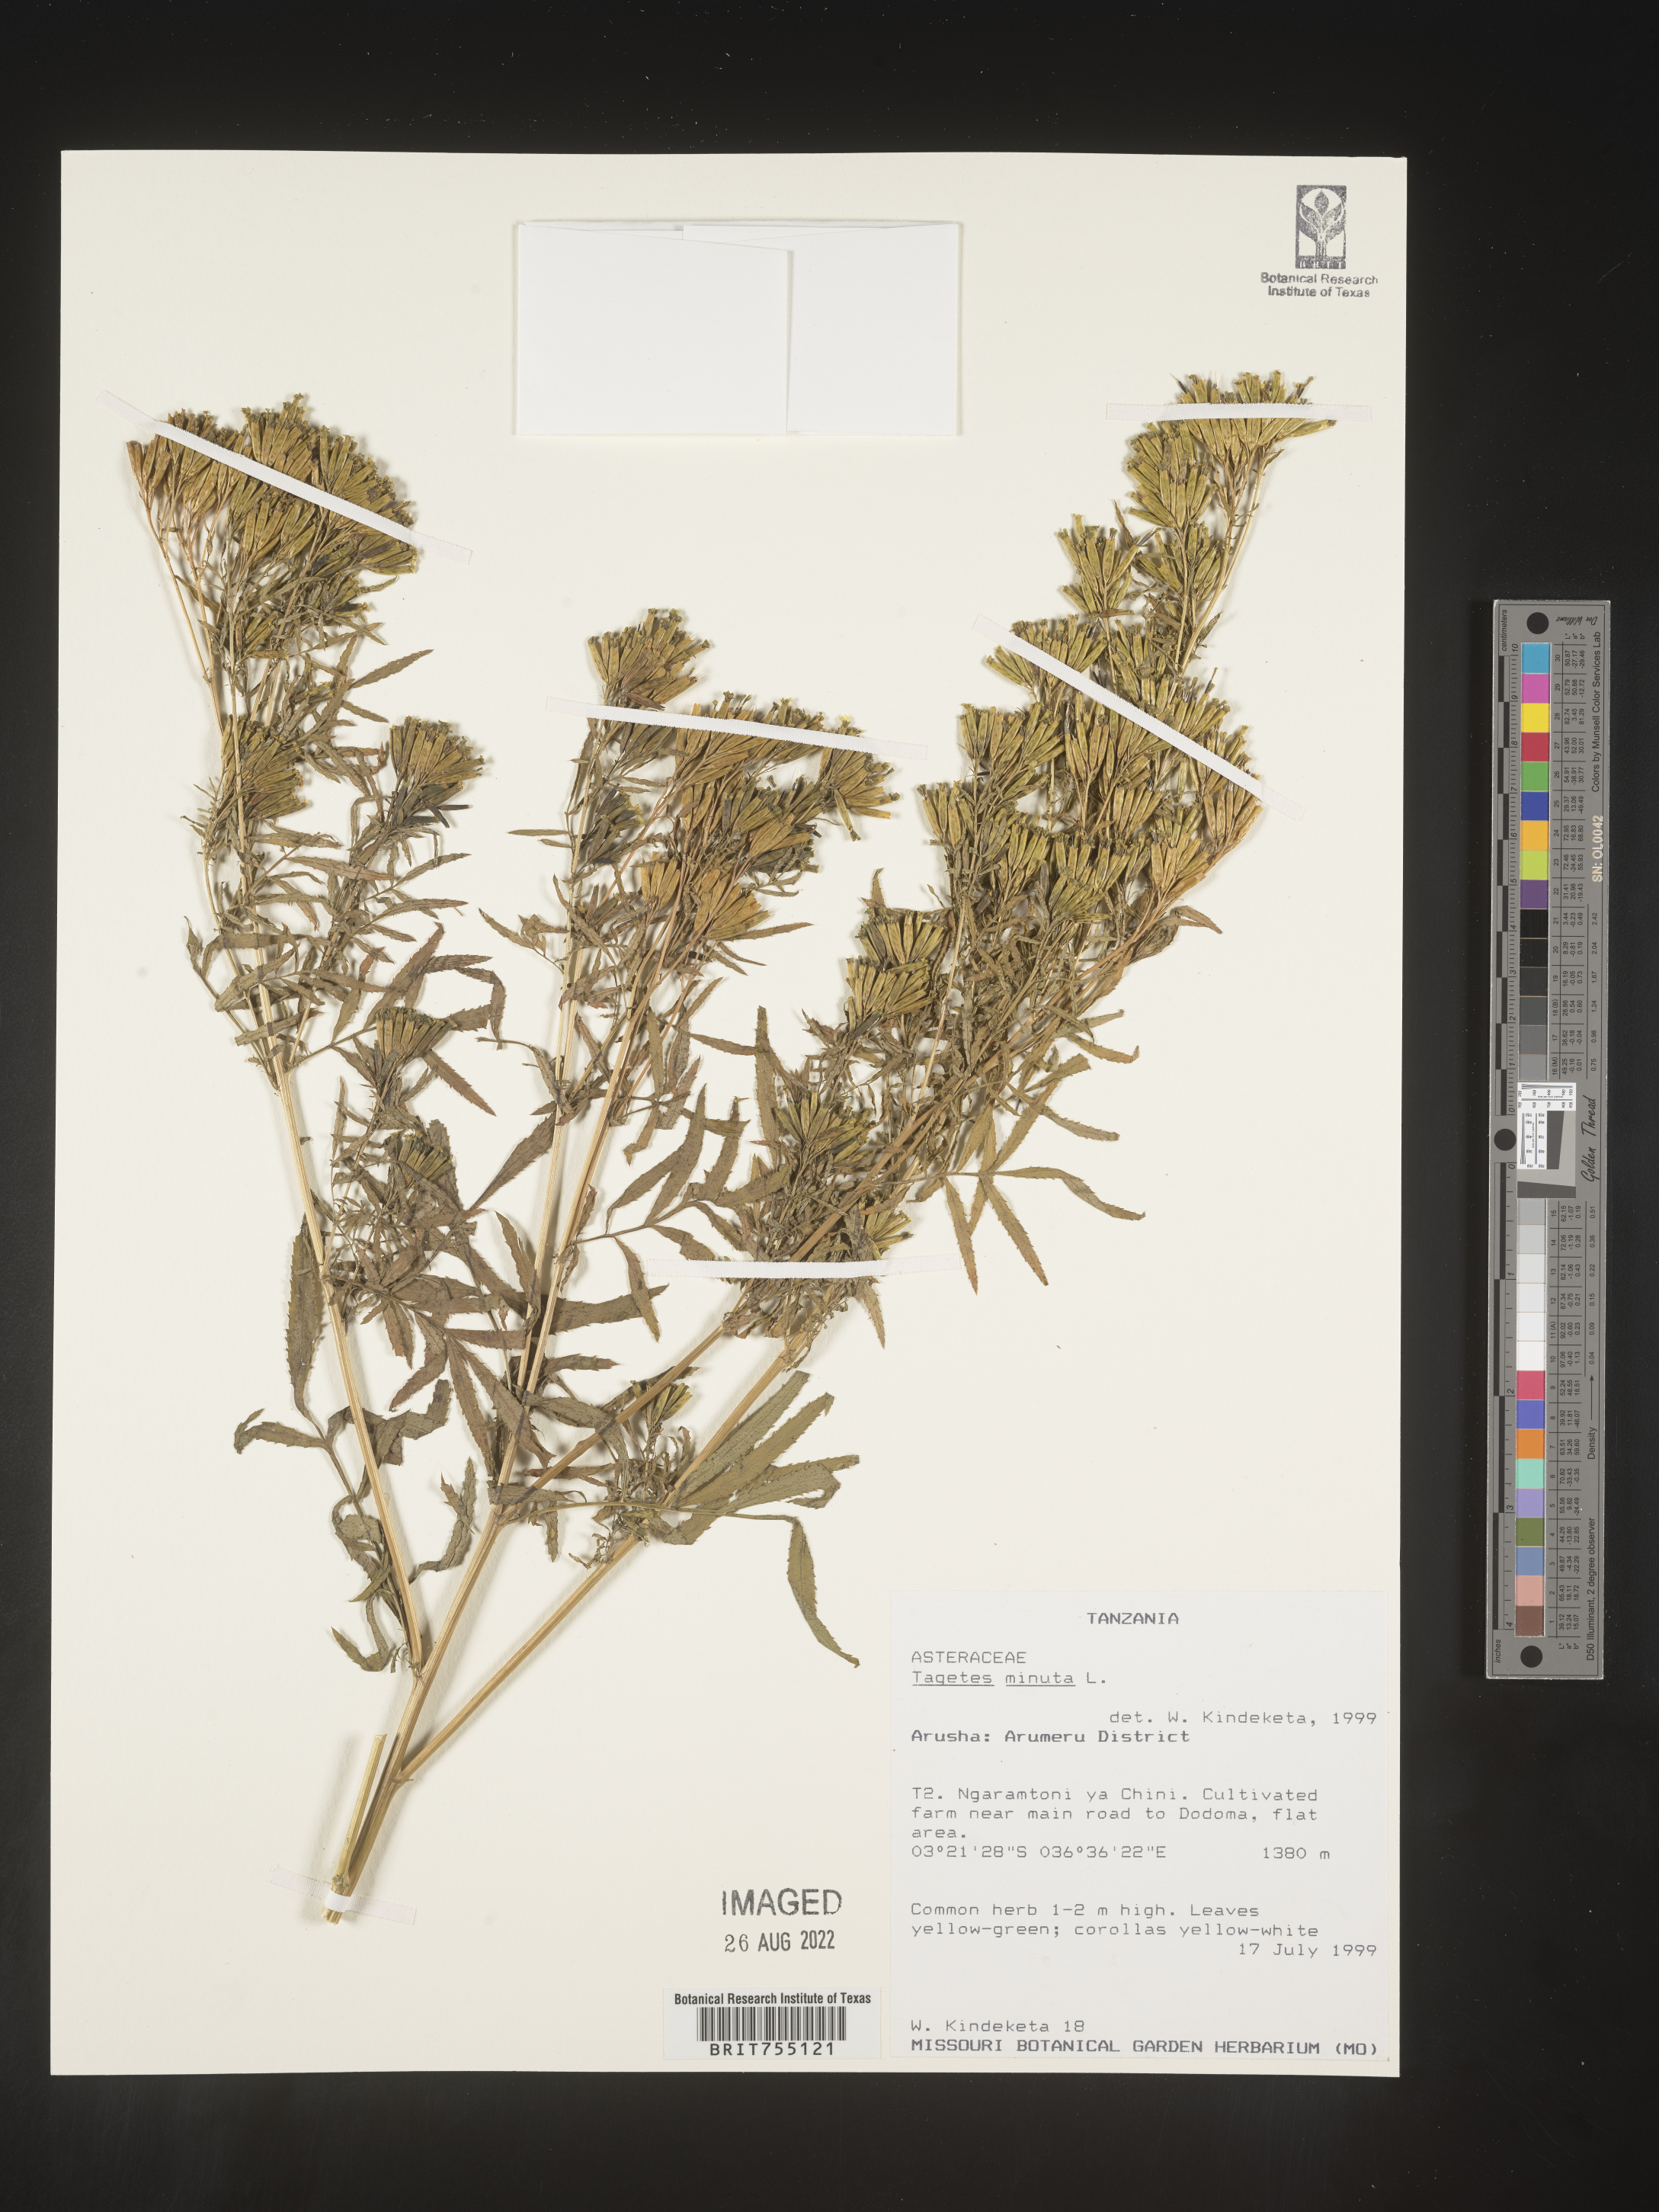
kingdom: Plantae
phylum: Tracheophyta
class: Magnoliopsida
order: Asterales
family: Asteraceae
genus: Tagetes
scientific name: Tagetes
